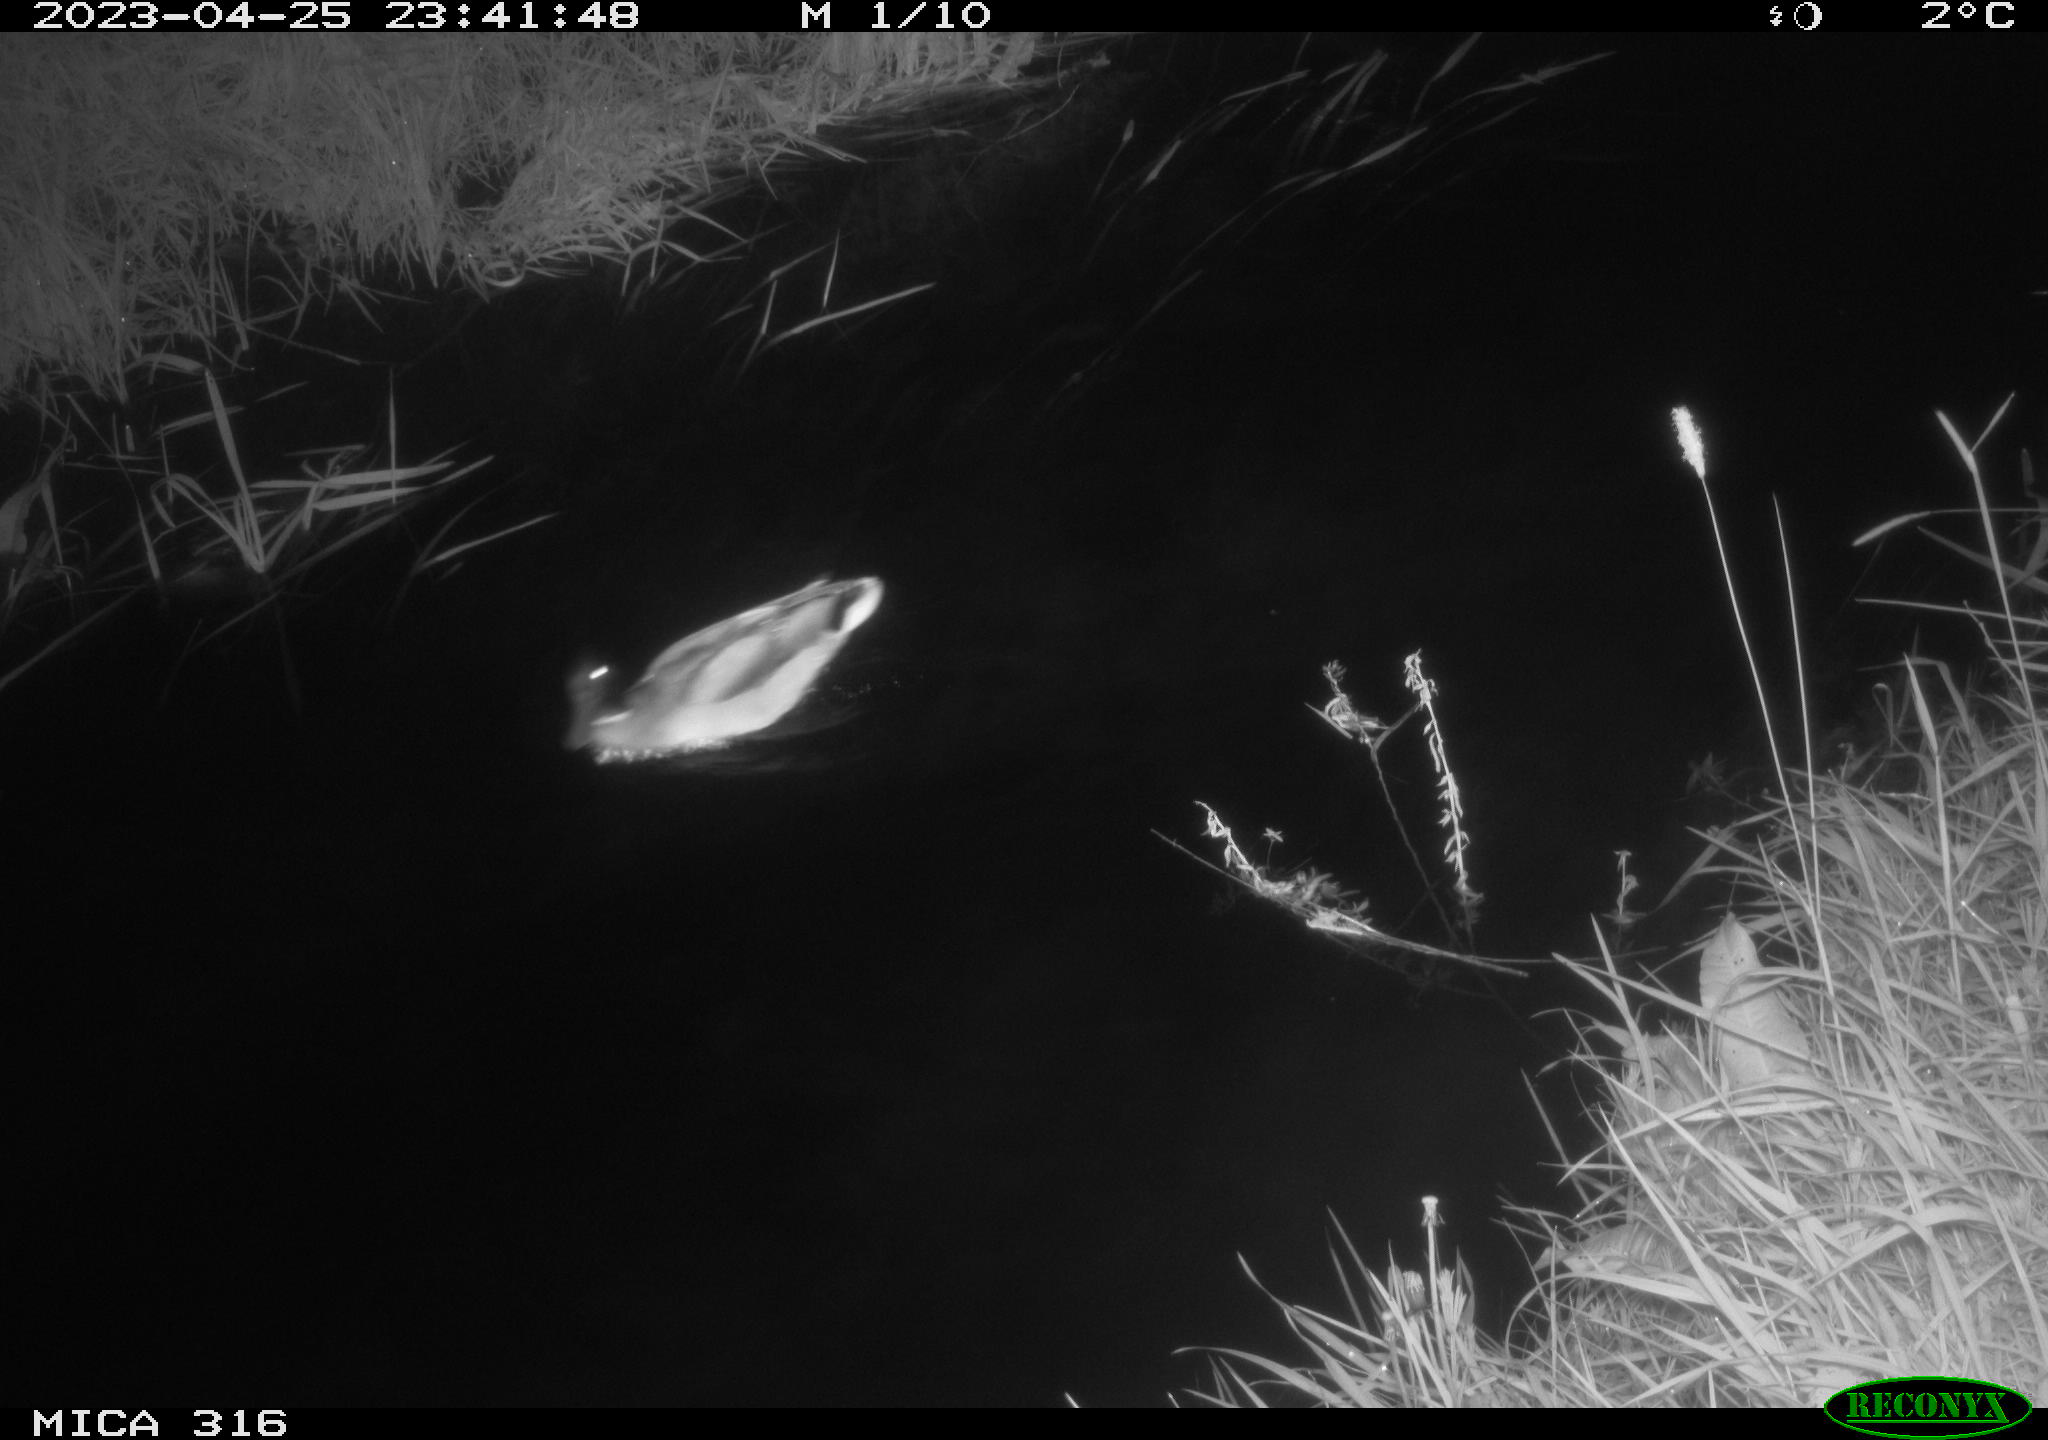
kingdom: Animalia
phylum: Chordata
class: Aves
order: Anseriformes
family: Anatidae
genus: Anas
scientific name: Anas
